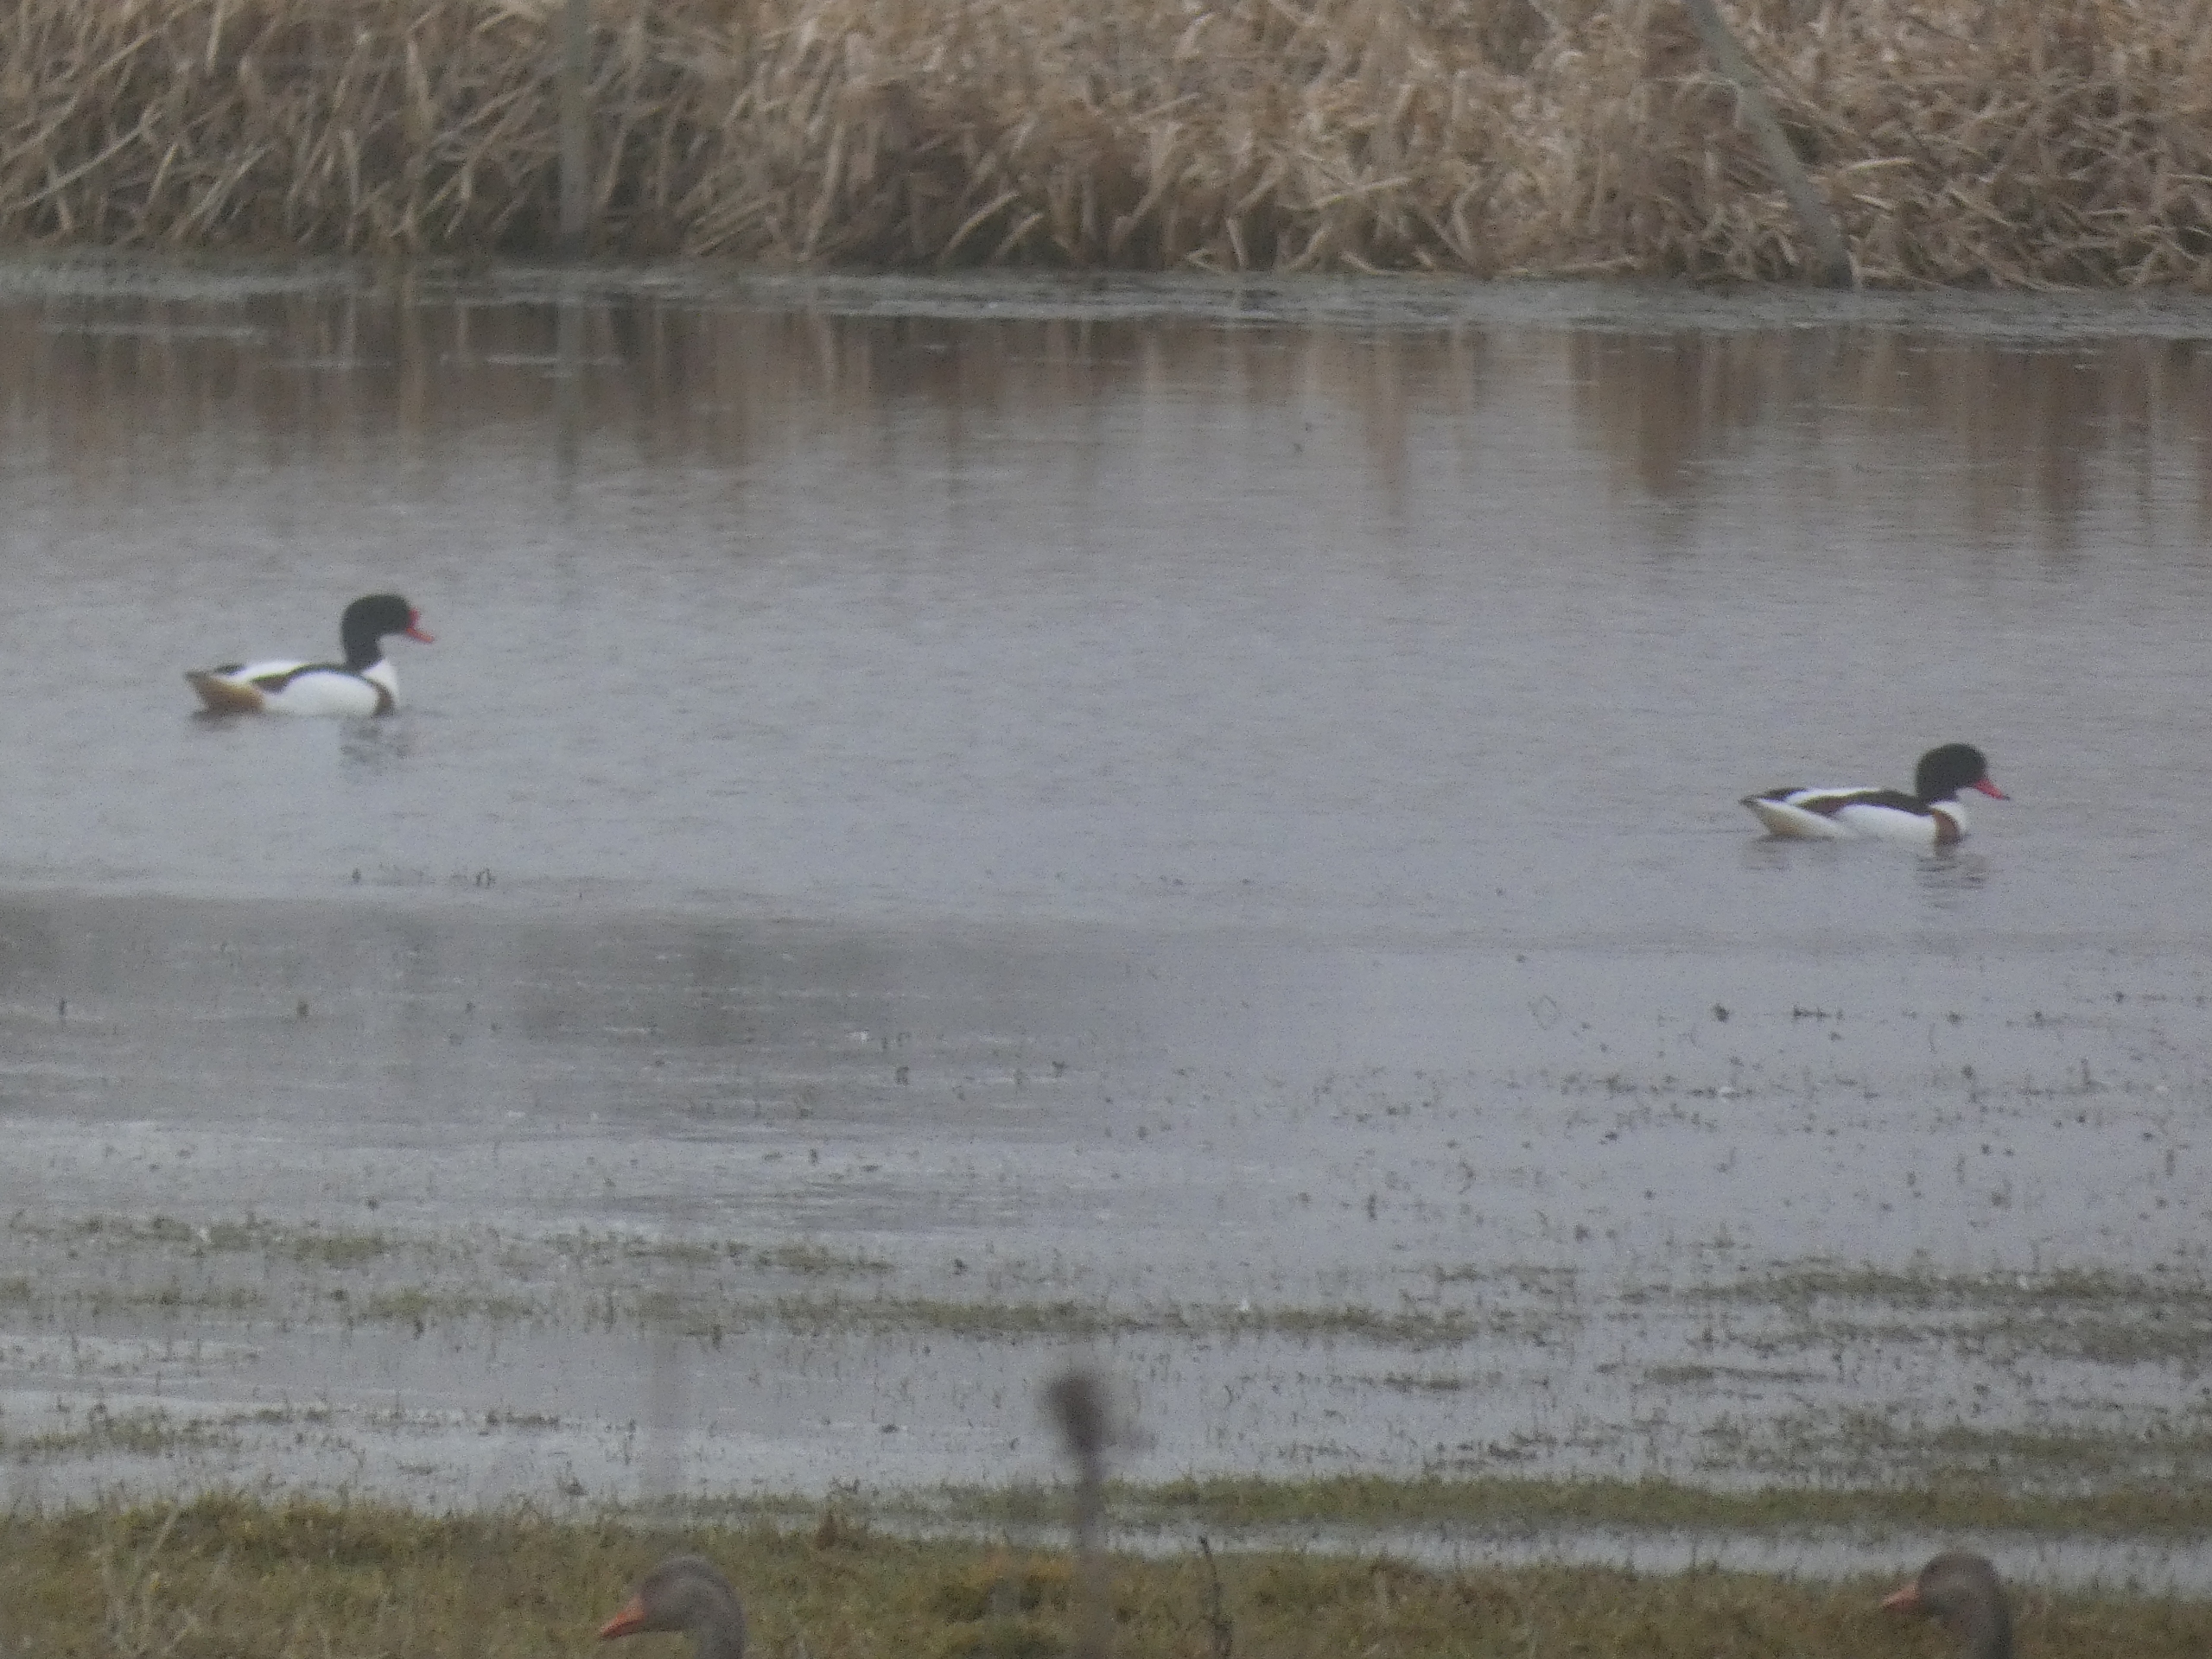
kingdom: Animalia
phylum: Chordata
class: Aves
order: Anseriformes
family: Anatidae
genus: Tadorna
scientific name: Tadorna tadorna
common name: Gravand
